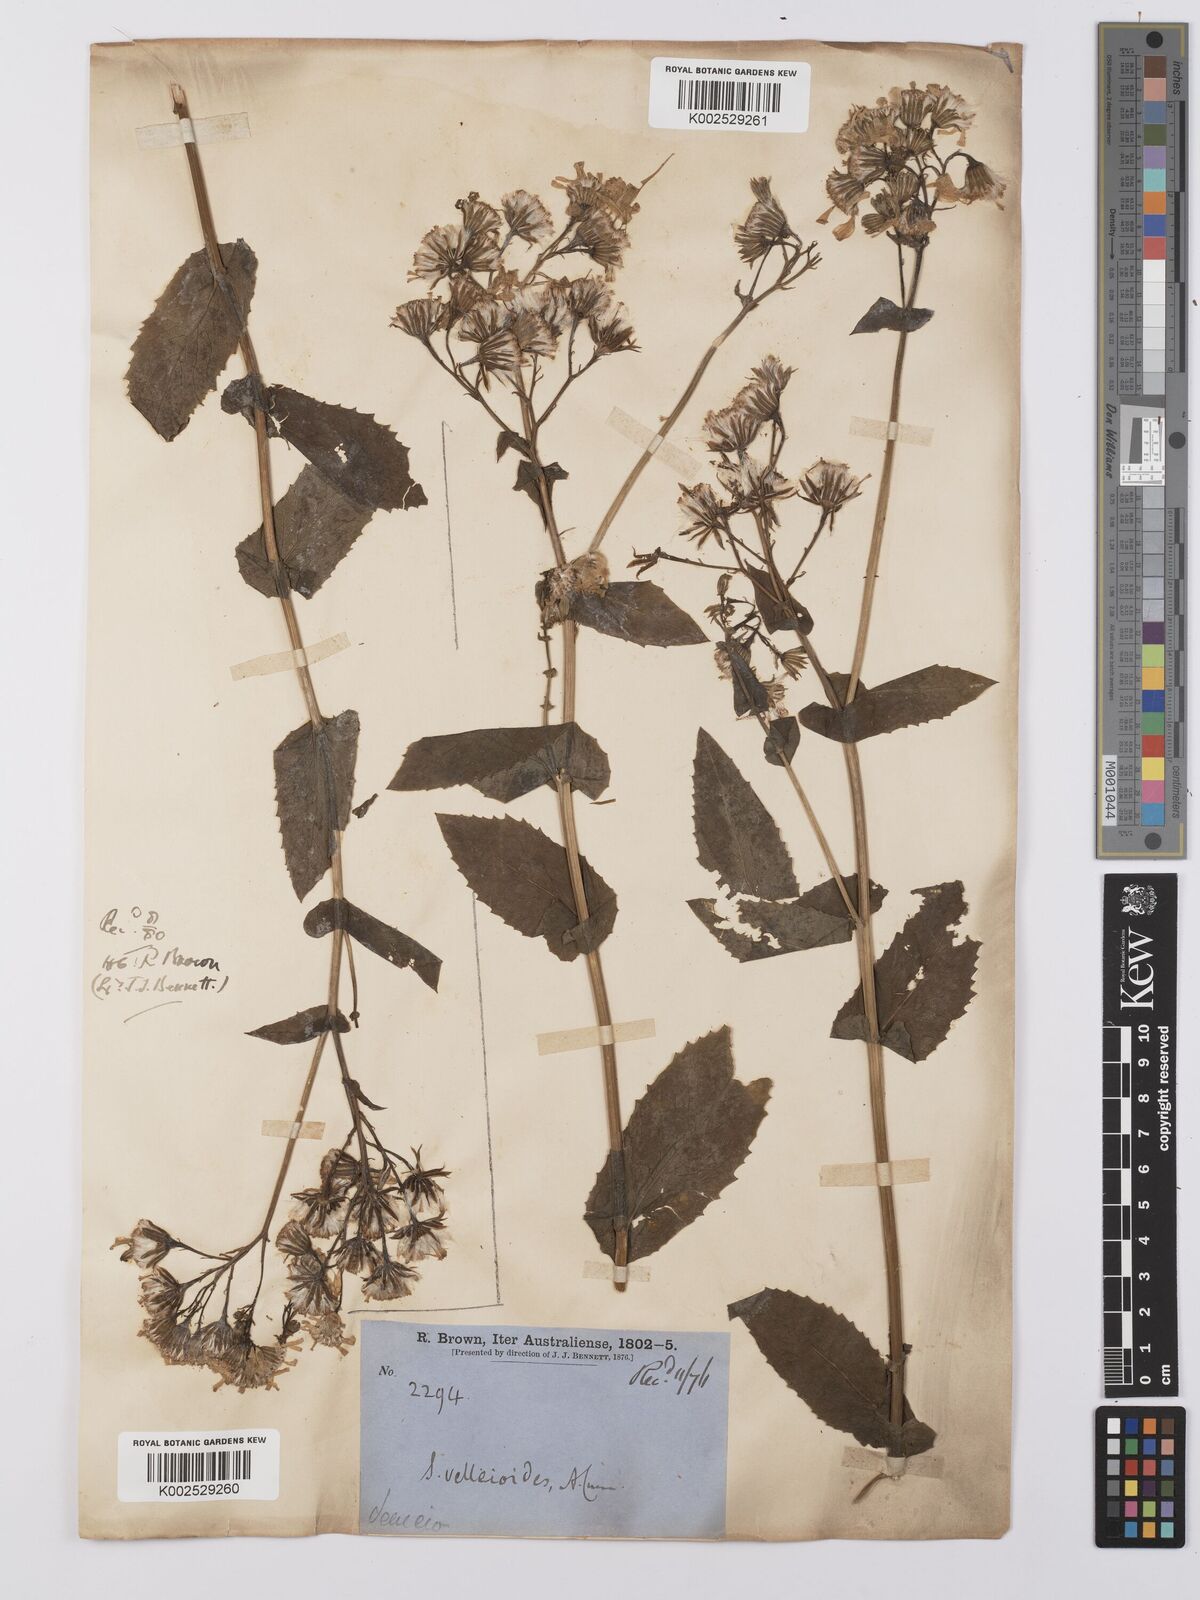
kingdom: Plantae
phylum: Tracheophyta
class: Magnoliopsida
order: Asterales
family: Asteraceae
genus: Lordhowea
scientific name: Lordhowea velleioides
